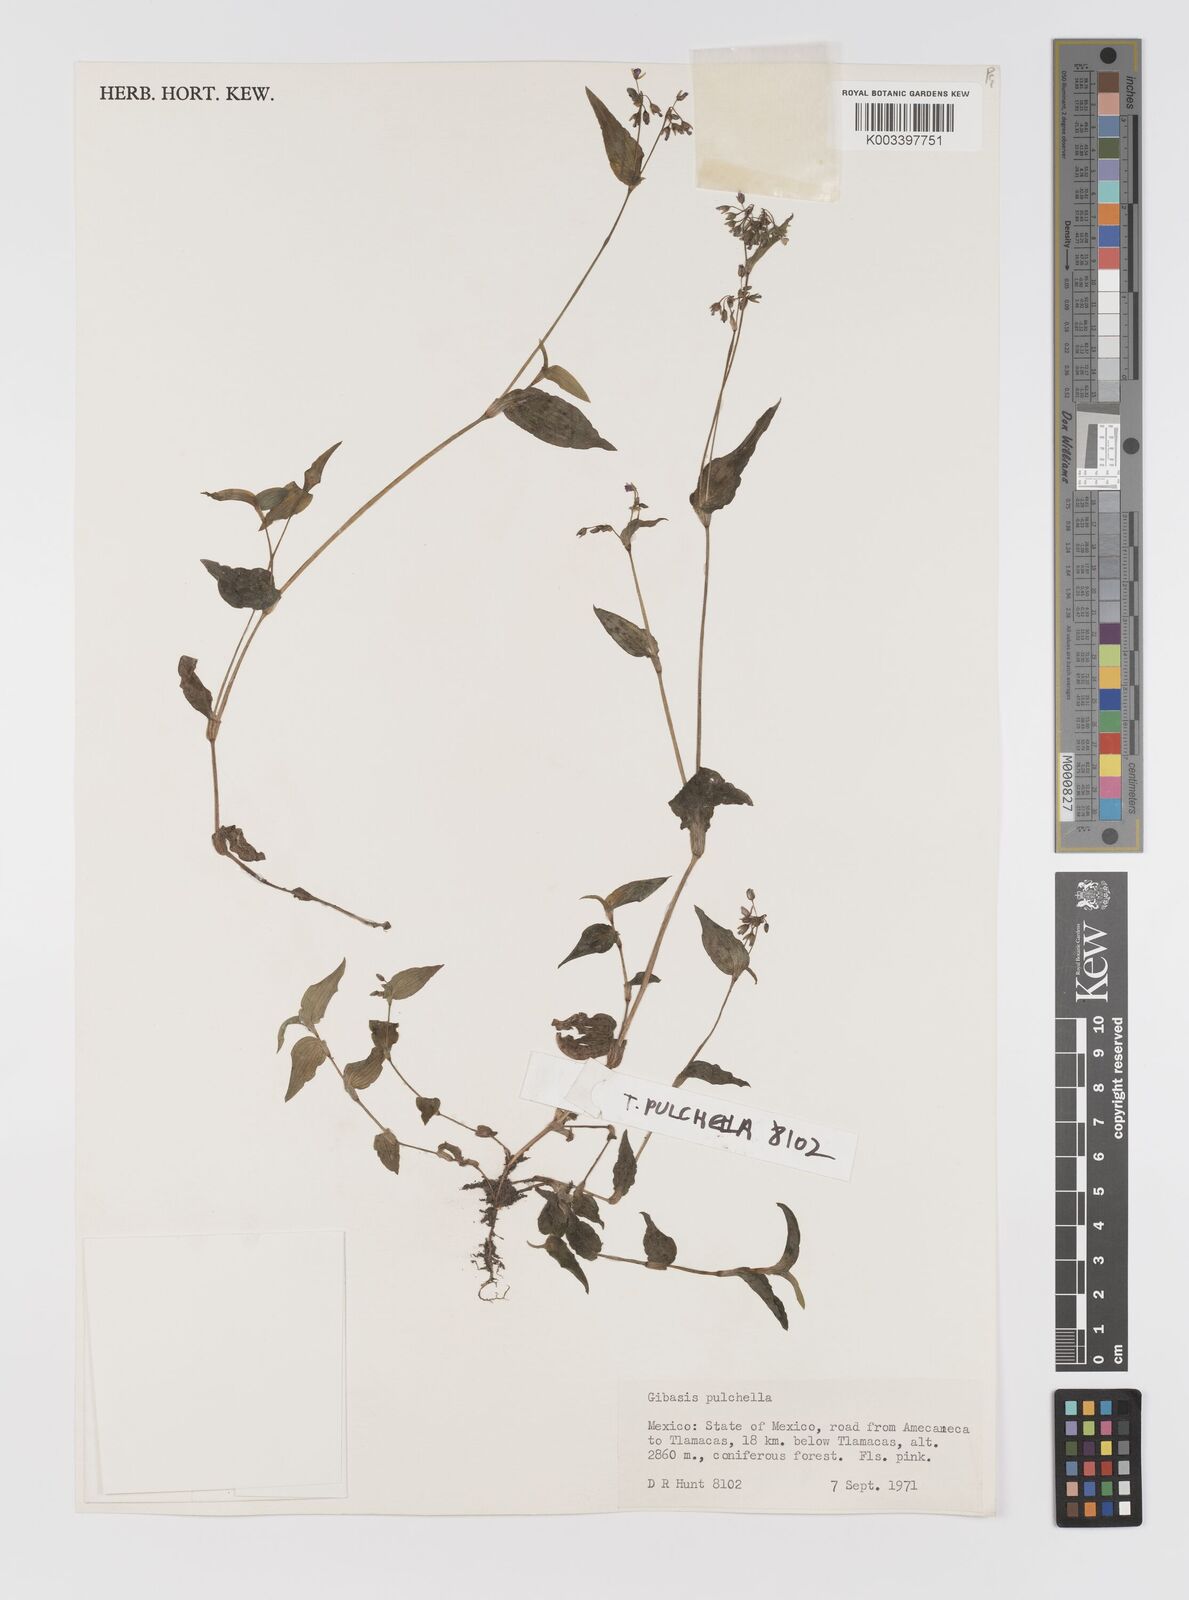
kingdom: Plantae
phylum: Tracheophyta
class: Liliopsida
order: Commelinales
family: Commelinaceae
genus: Gibasis
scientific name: Gibasis pulchella
